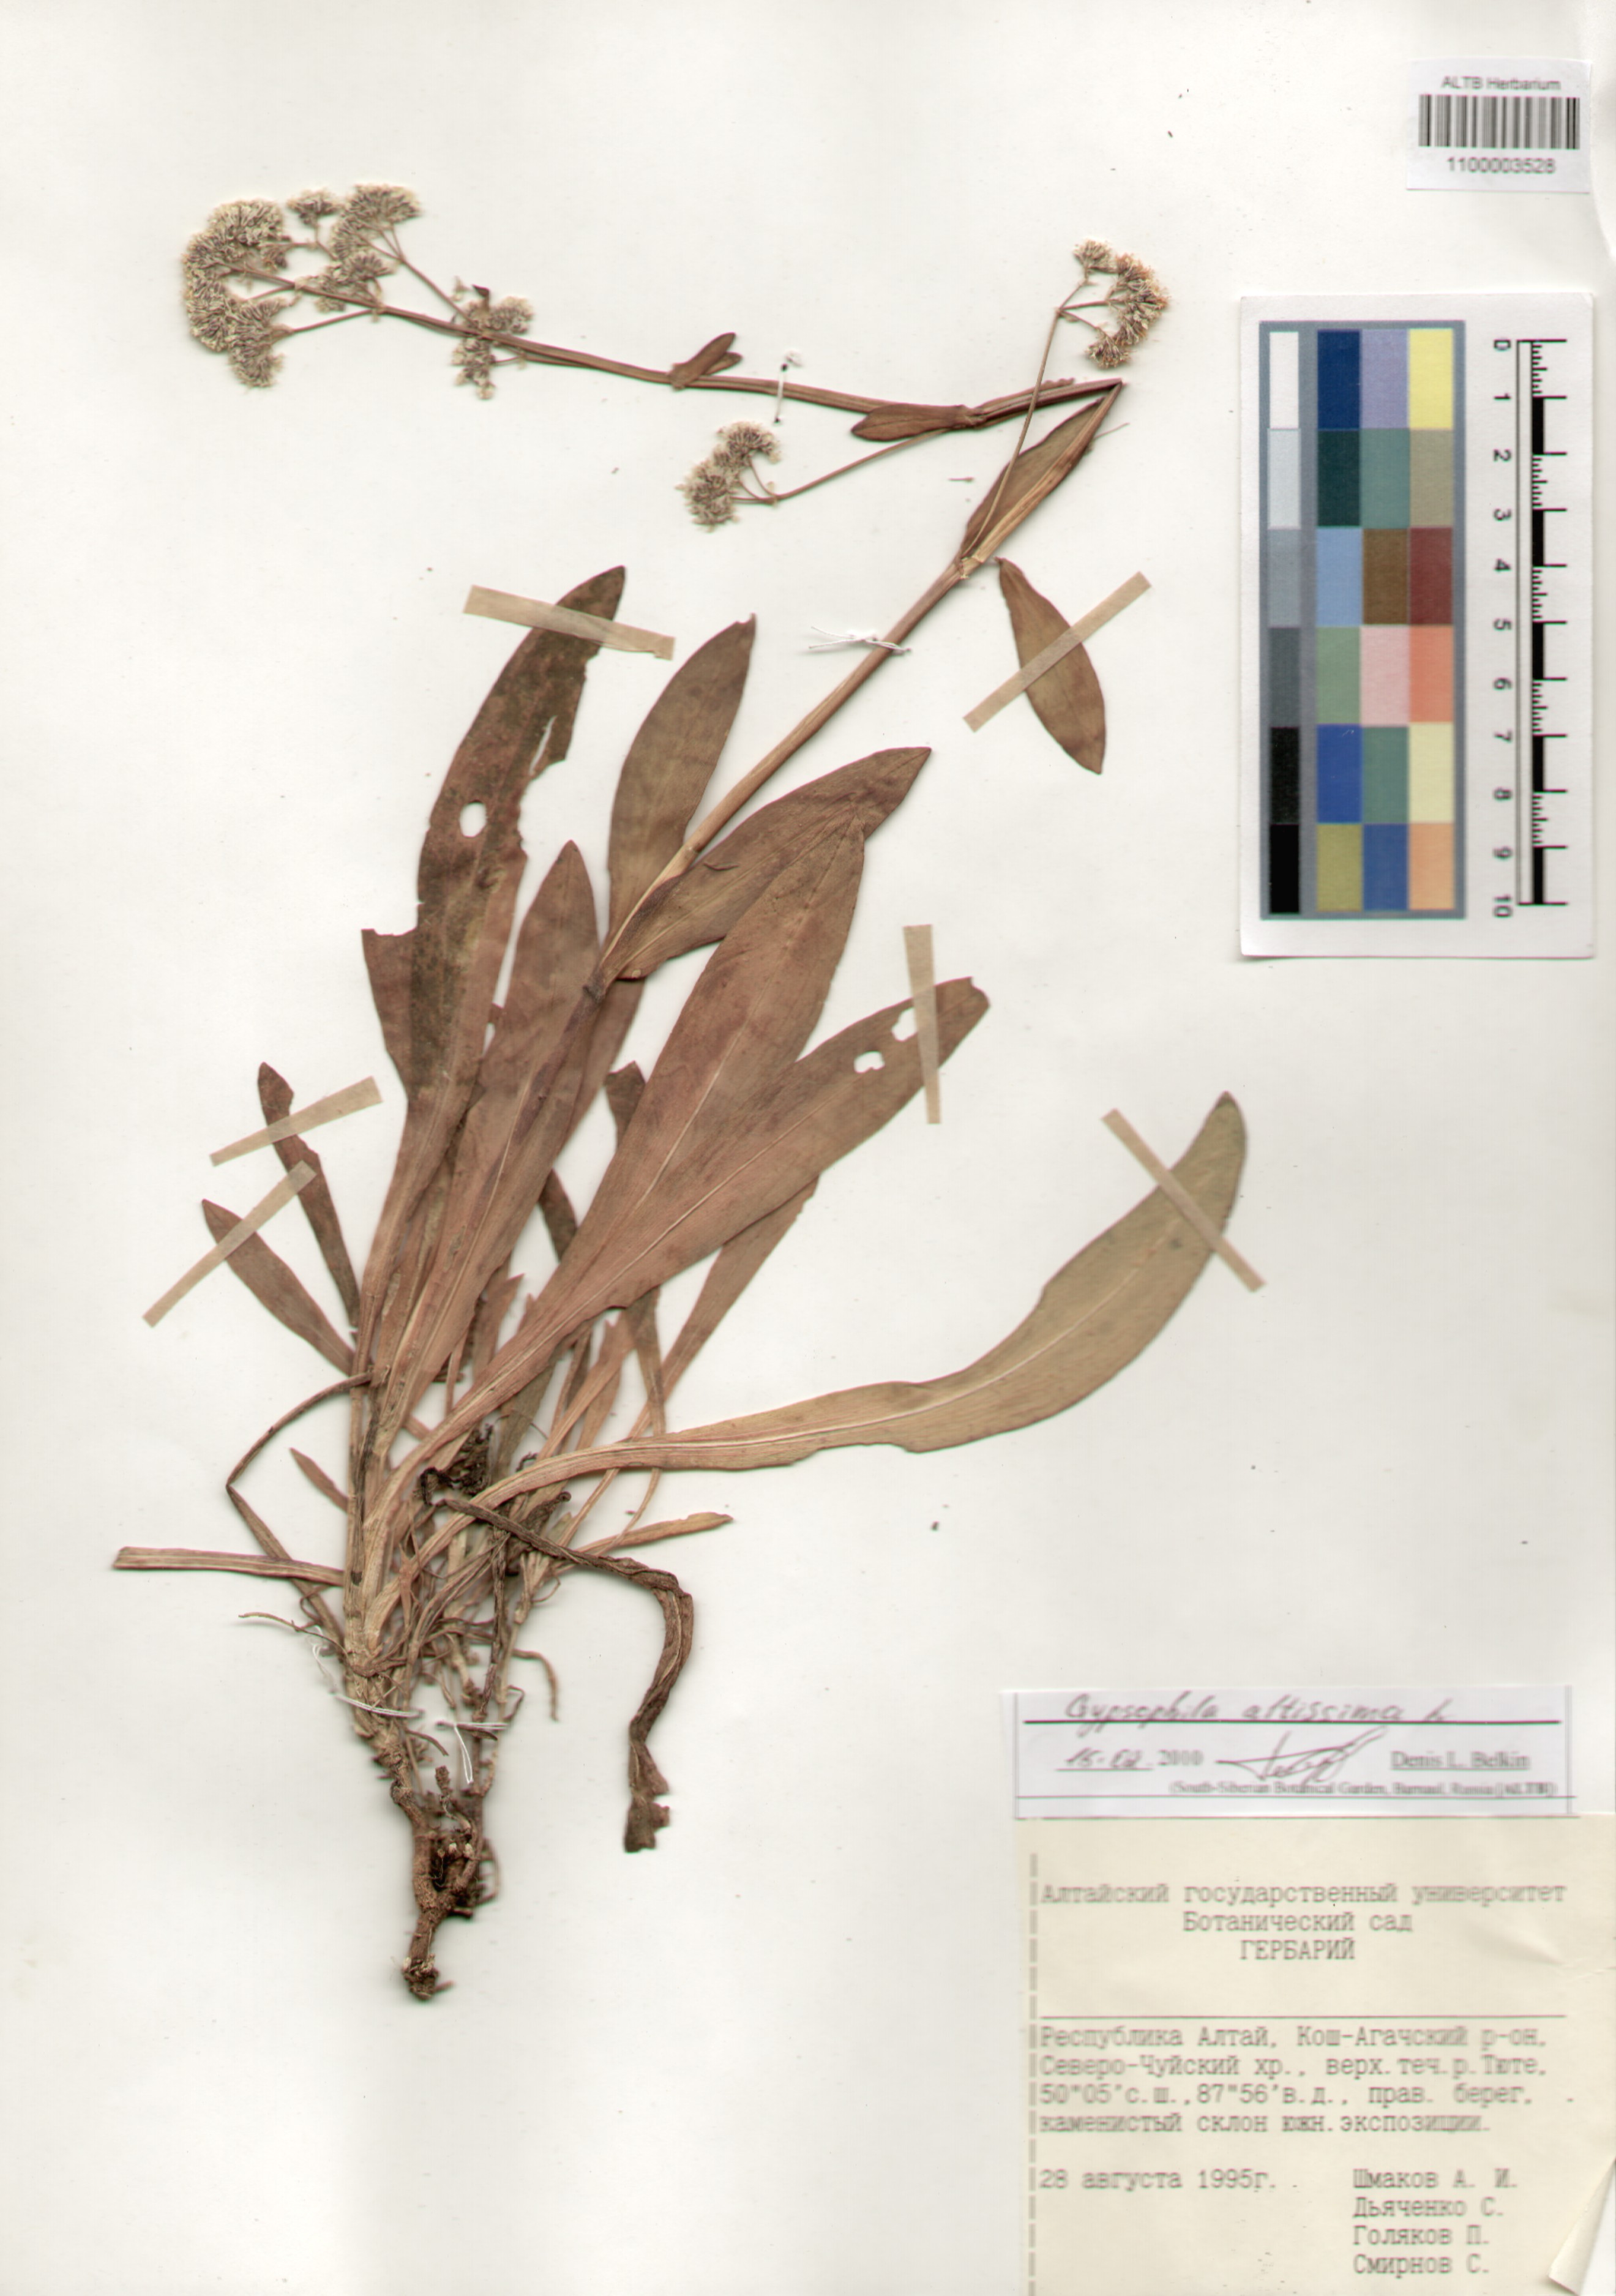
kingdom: Plantae
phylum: Tracheophyta
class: Magnoliopsida
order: Caryophyllales
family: Caryophyllaceae
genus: Gypsophila
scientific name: Gypsophila altissima
